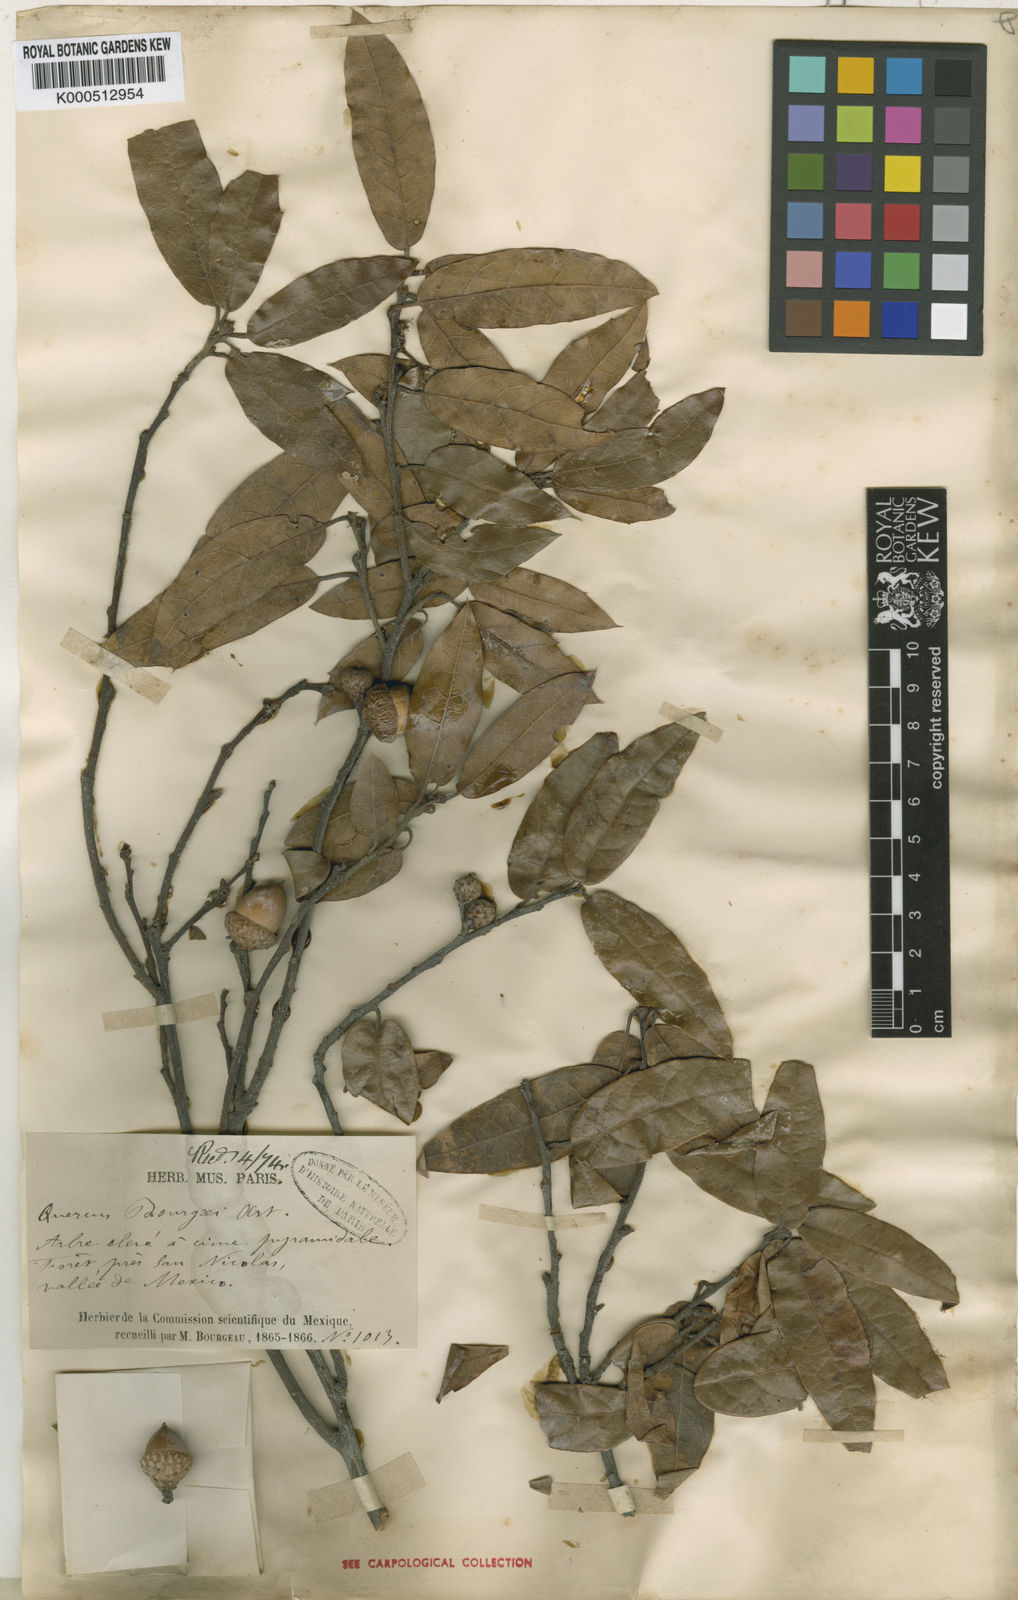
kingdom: Plantae
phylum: Tracheophyta
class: Magnoliopsida
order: Fagales
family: Fagaceae
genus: Quercus
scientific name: Quercus
